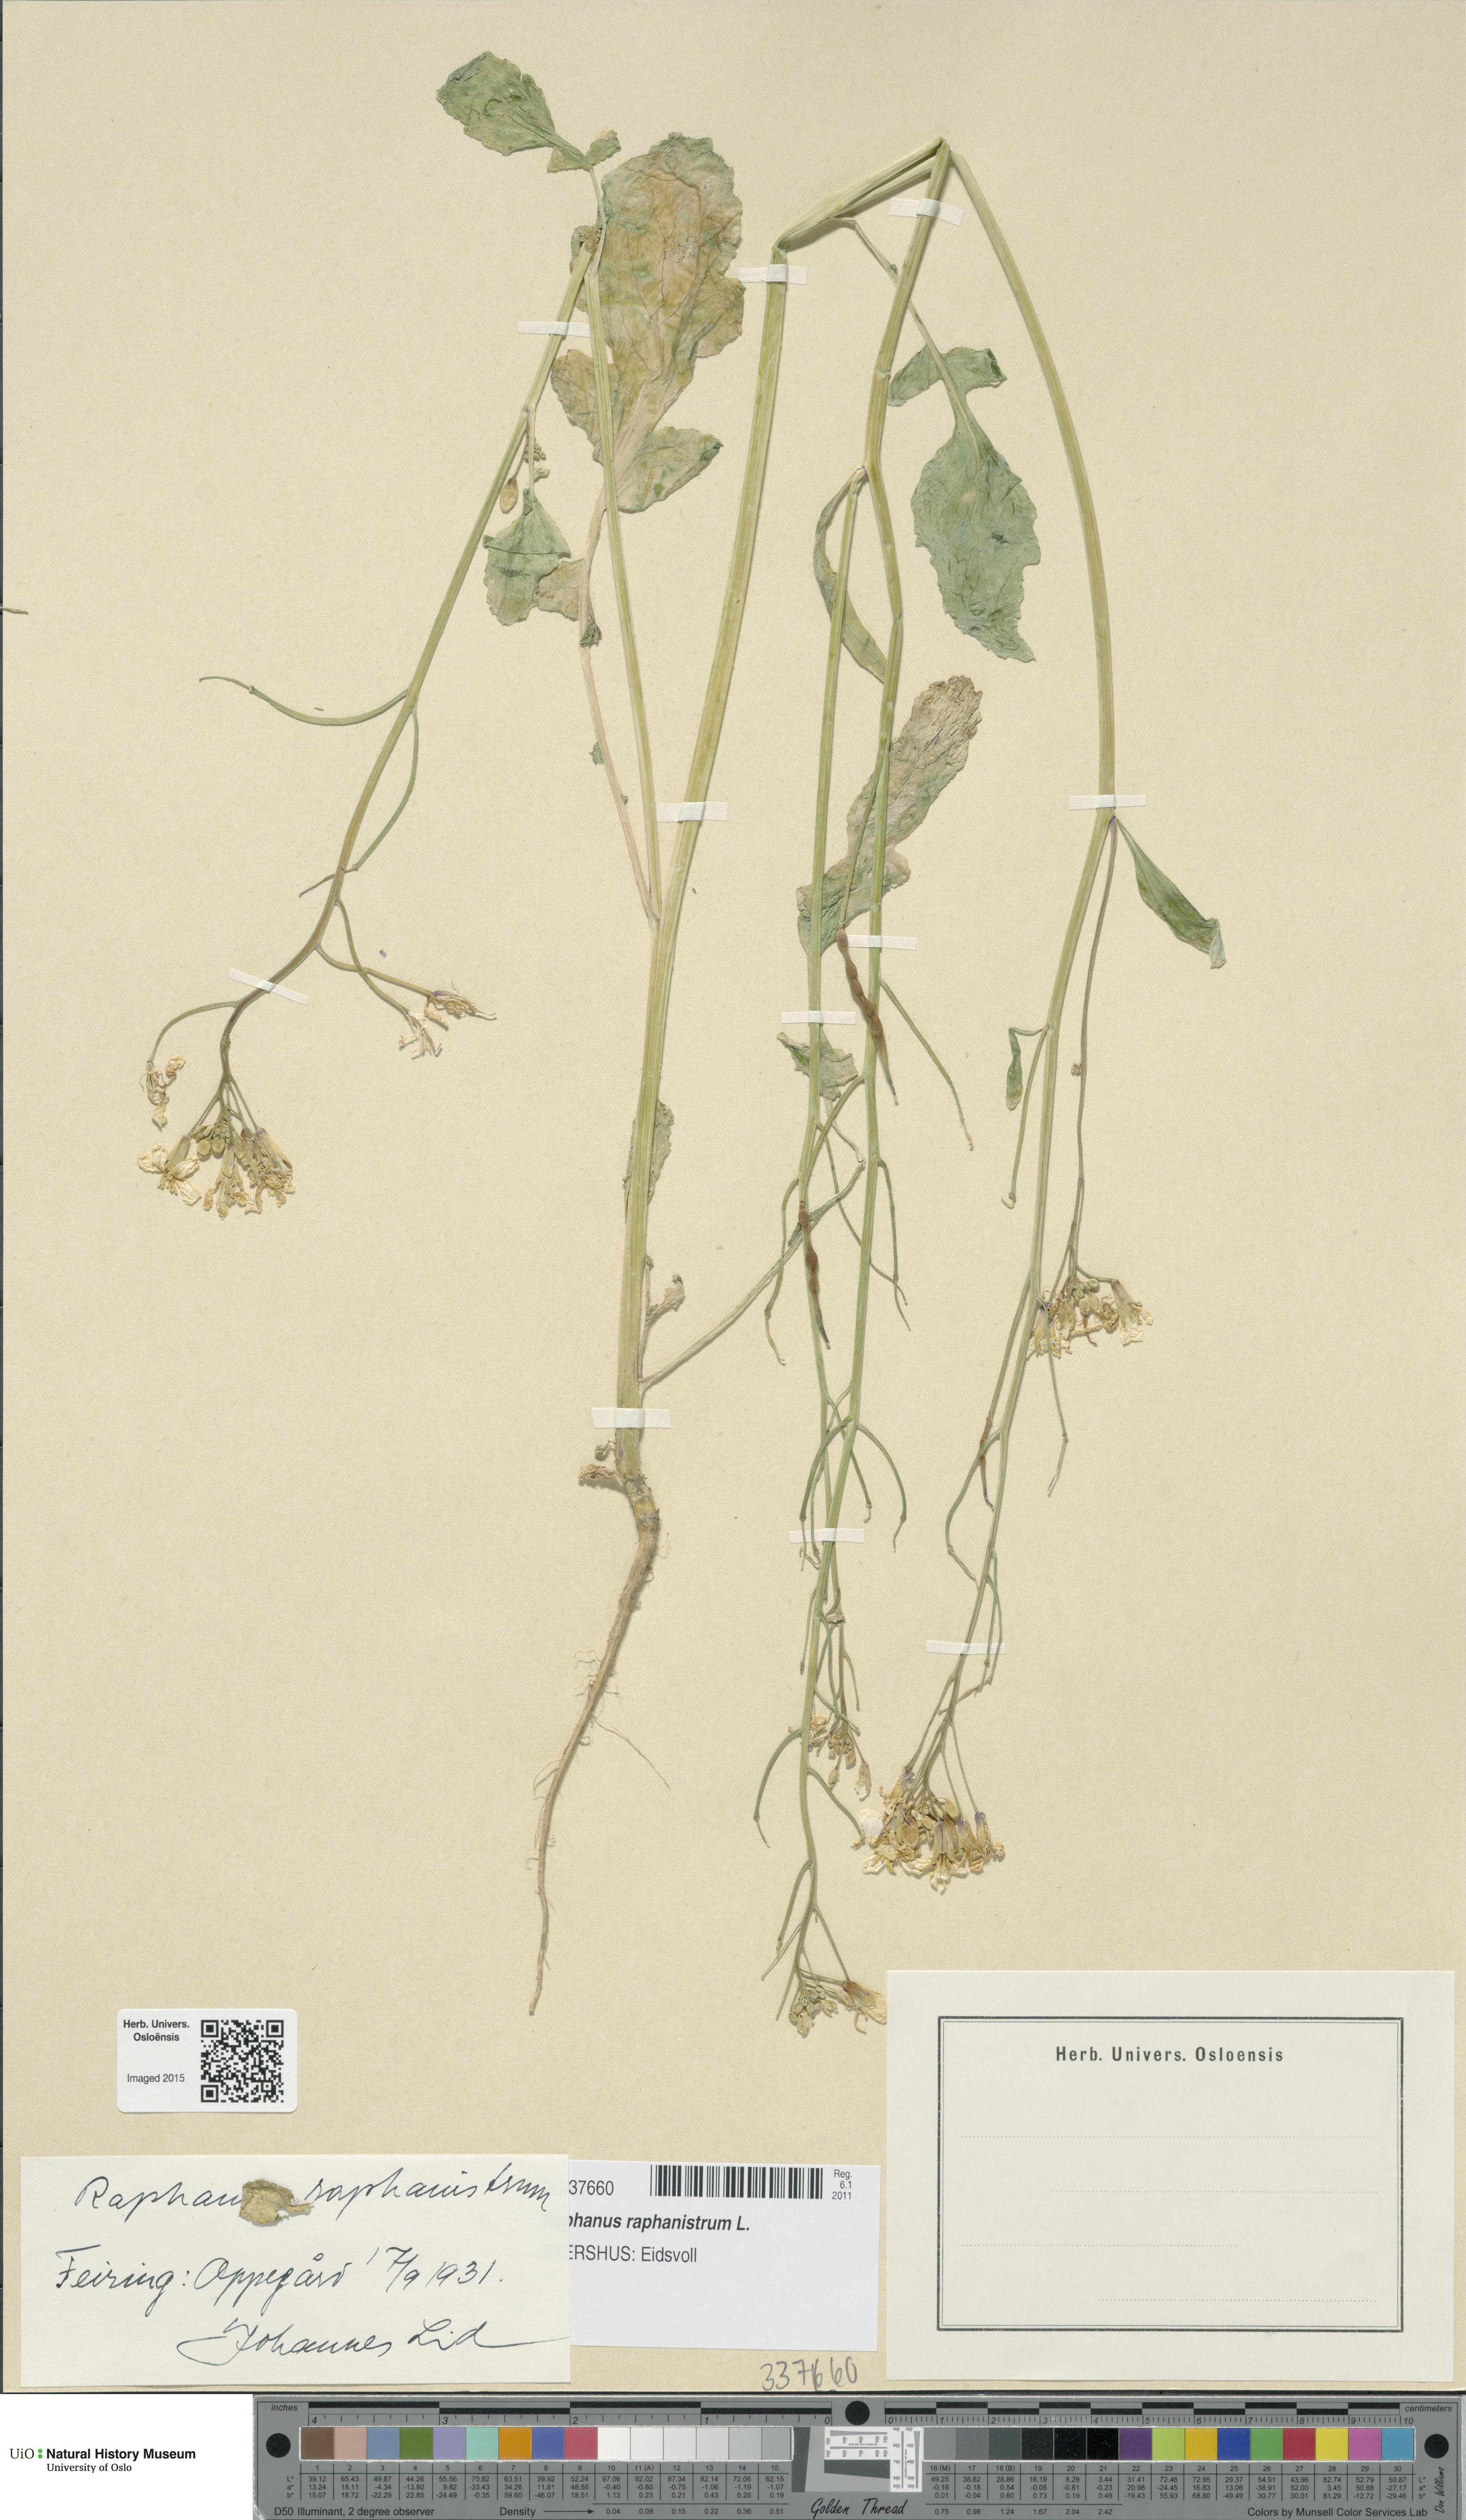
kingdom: Plantae
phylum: Tracheophyta
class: Magnoliopsida
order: Brassicales
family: Brassicaceae
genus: Raphanus
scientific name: Raphanus raphanistrum
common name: Wild radish
